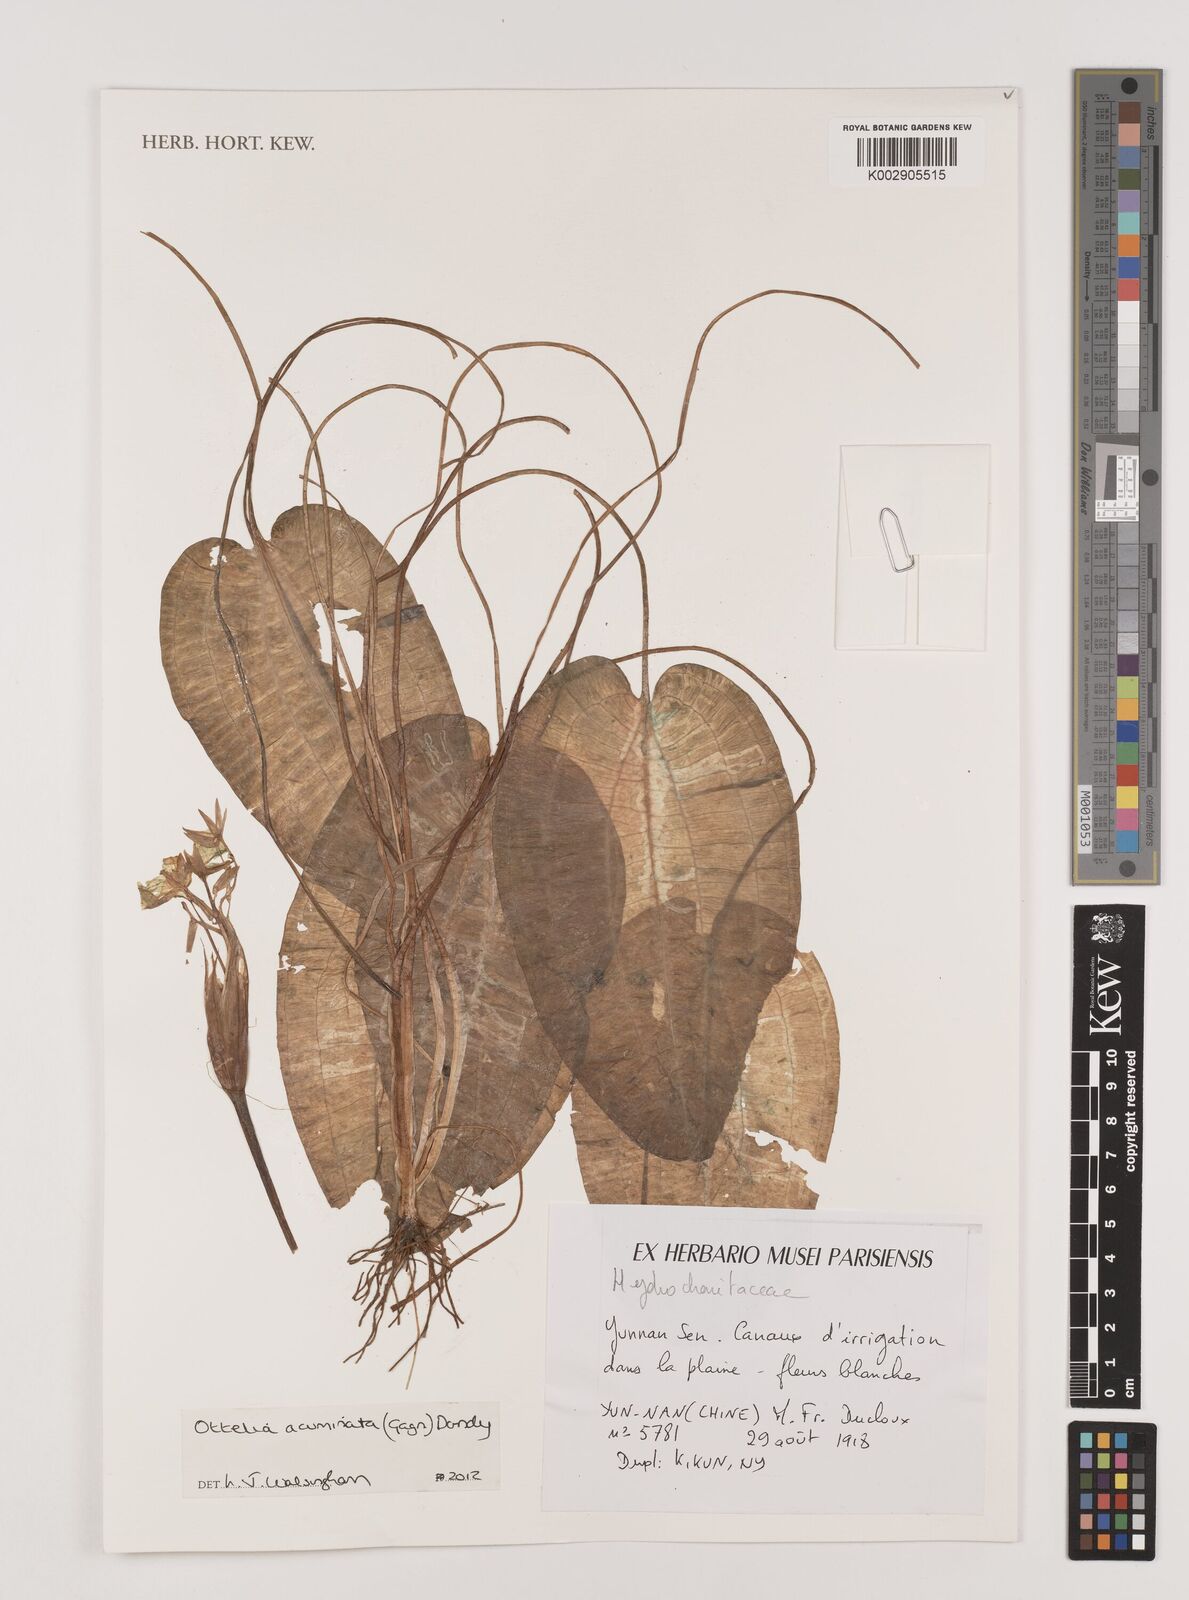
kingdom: Plantae
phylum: Tracheophyta
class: Liliopsida
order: Alismatales
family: Hydrocharitaceae
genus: Ottelia
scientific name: Ottelia acuminata
